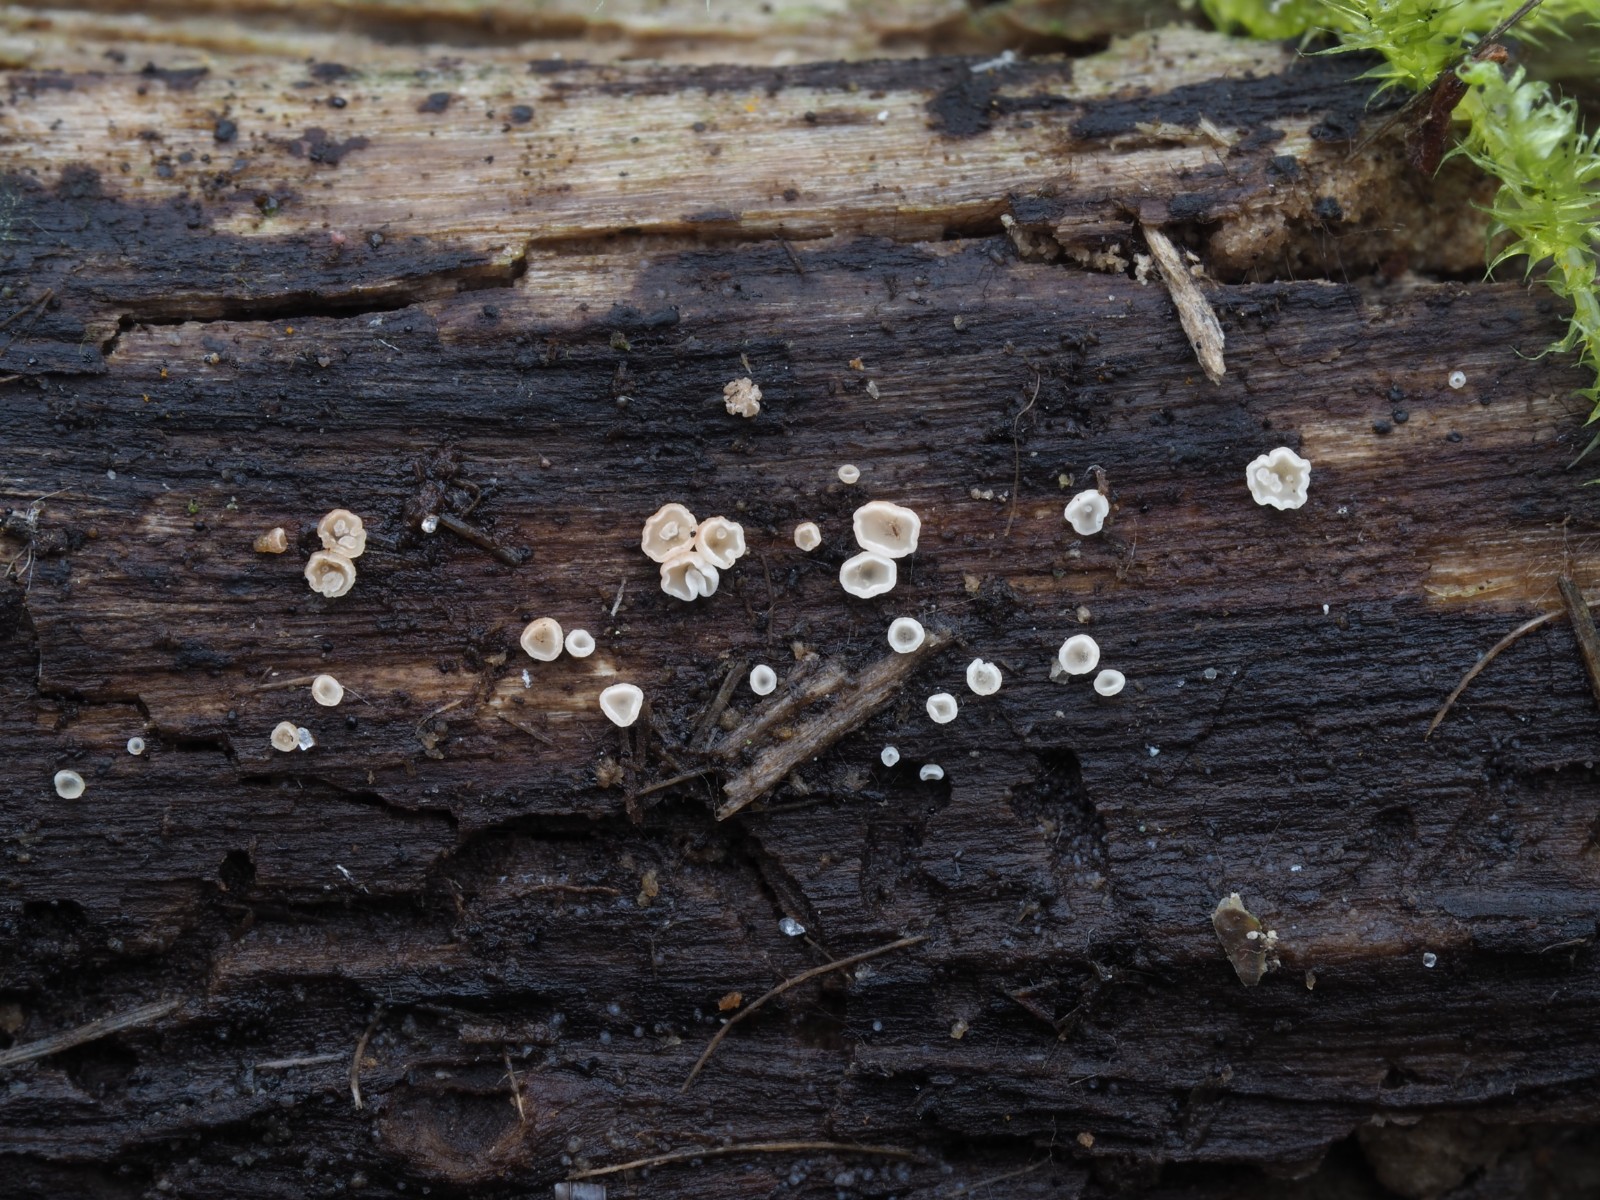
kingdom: Fungi
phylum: Ascomycota
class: Leotiomycetes
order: Helotiales
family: Pezizellaceae
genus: Calycina
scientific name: Calycina vulgaris
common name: pølsesporet gulskive
